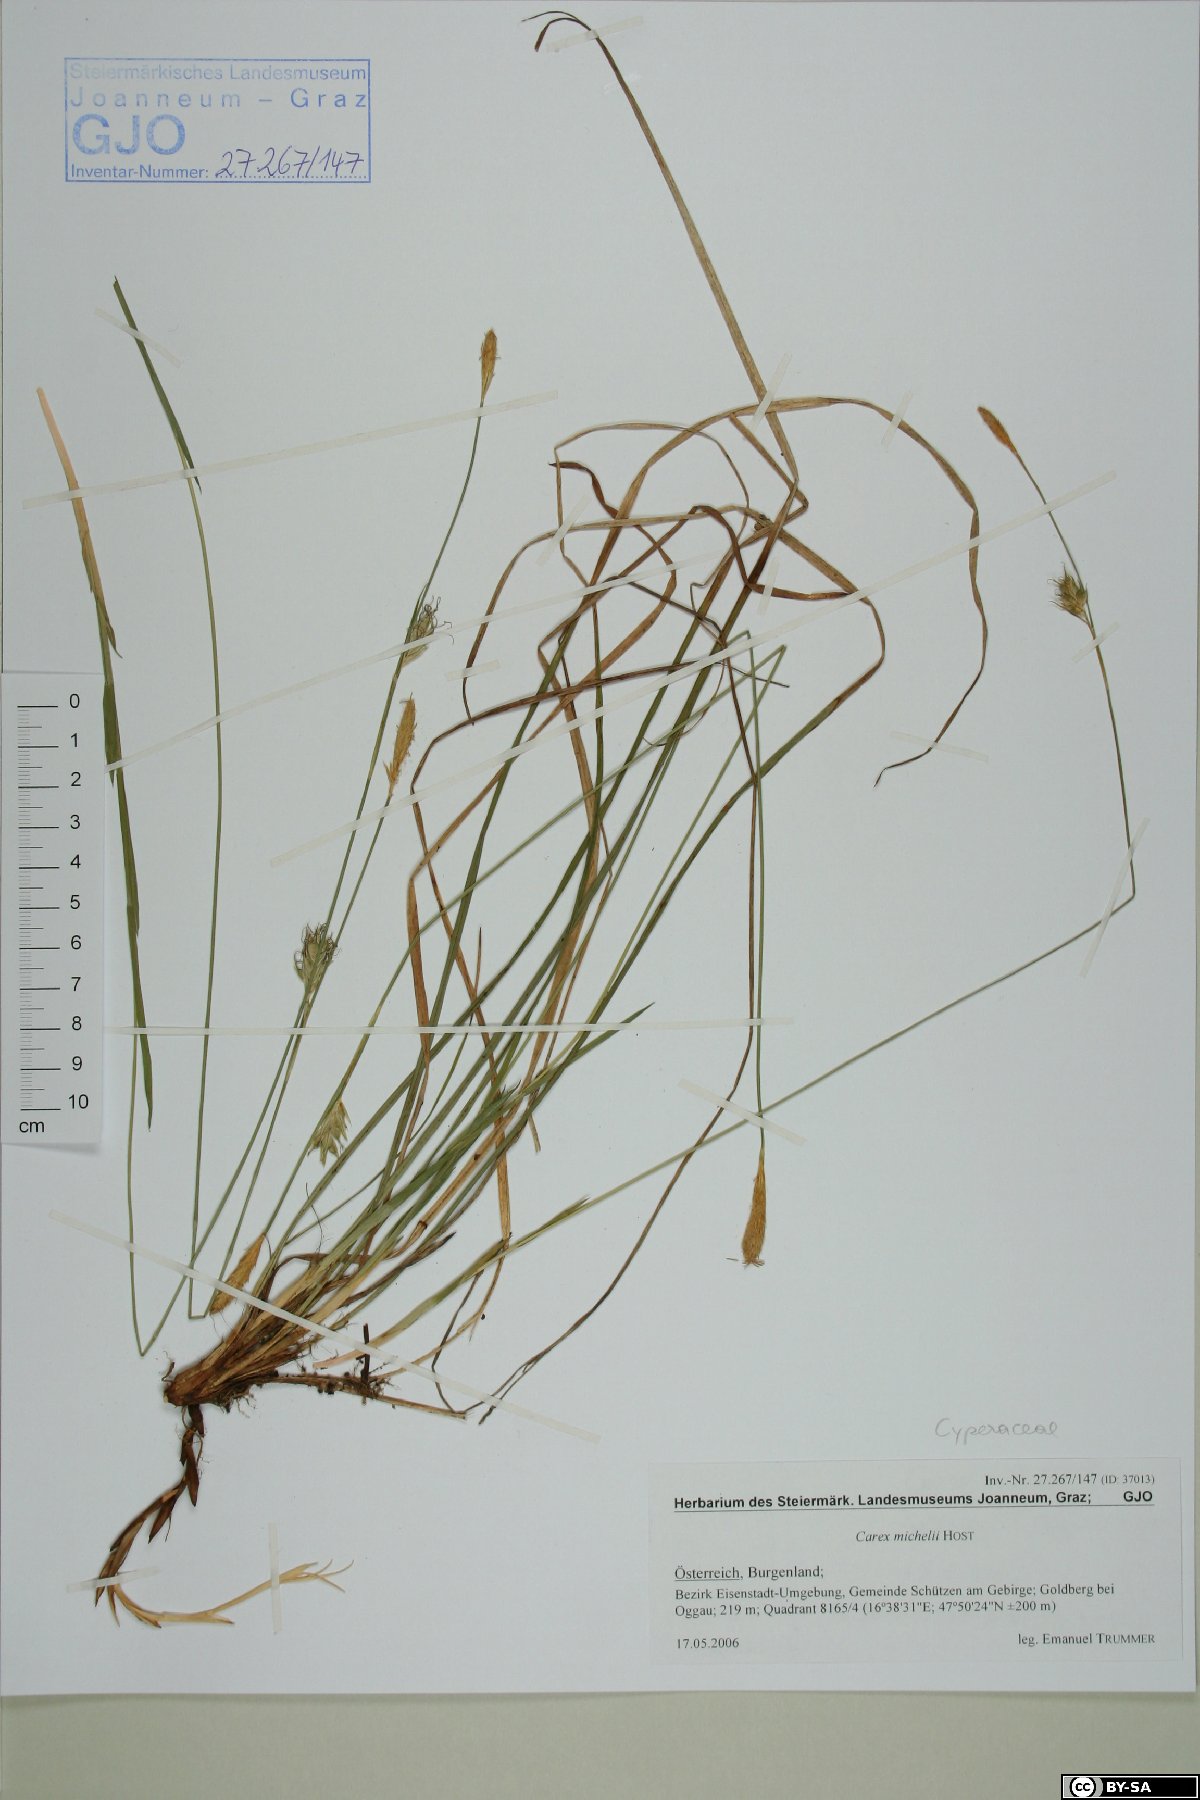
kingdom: Plantae
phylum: Tracheophyta
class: Liliopsida
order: Poales
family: Cyperaceae
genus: Carex
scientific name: Carex michelii
